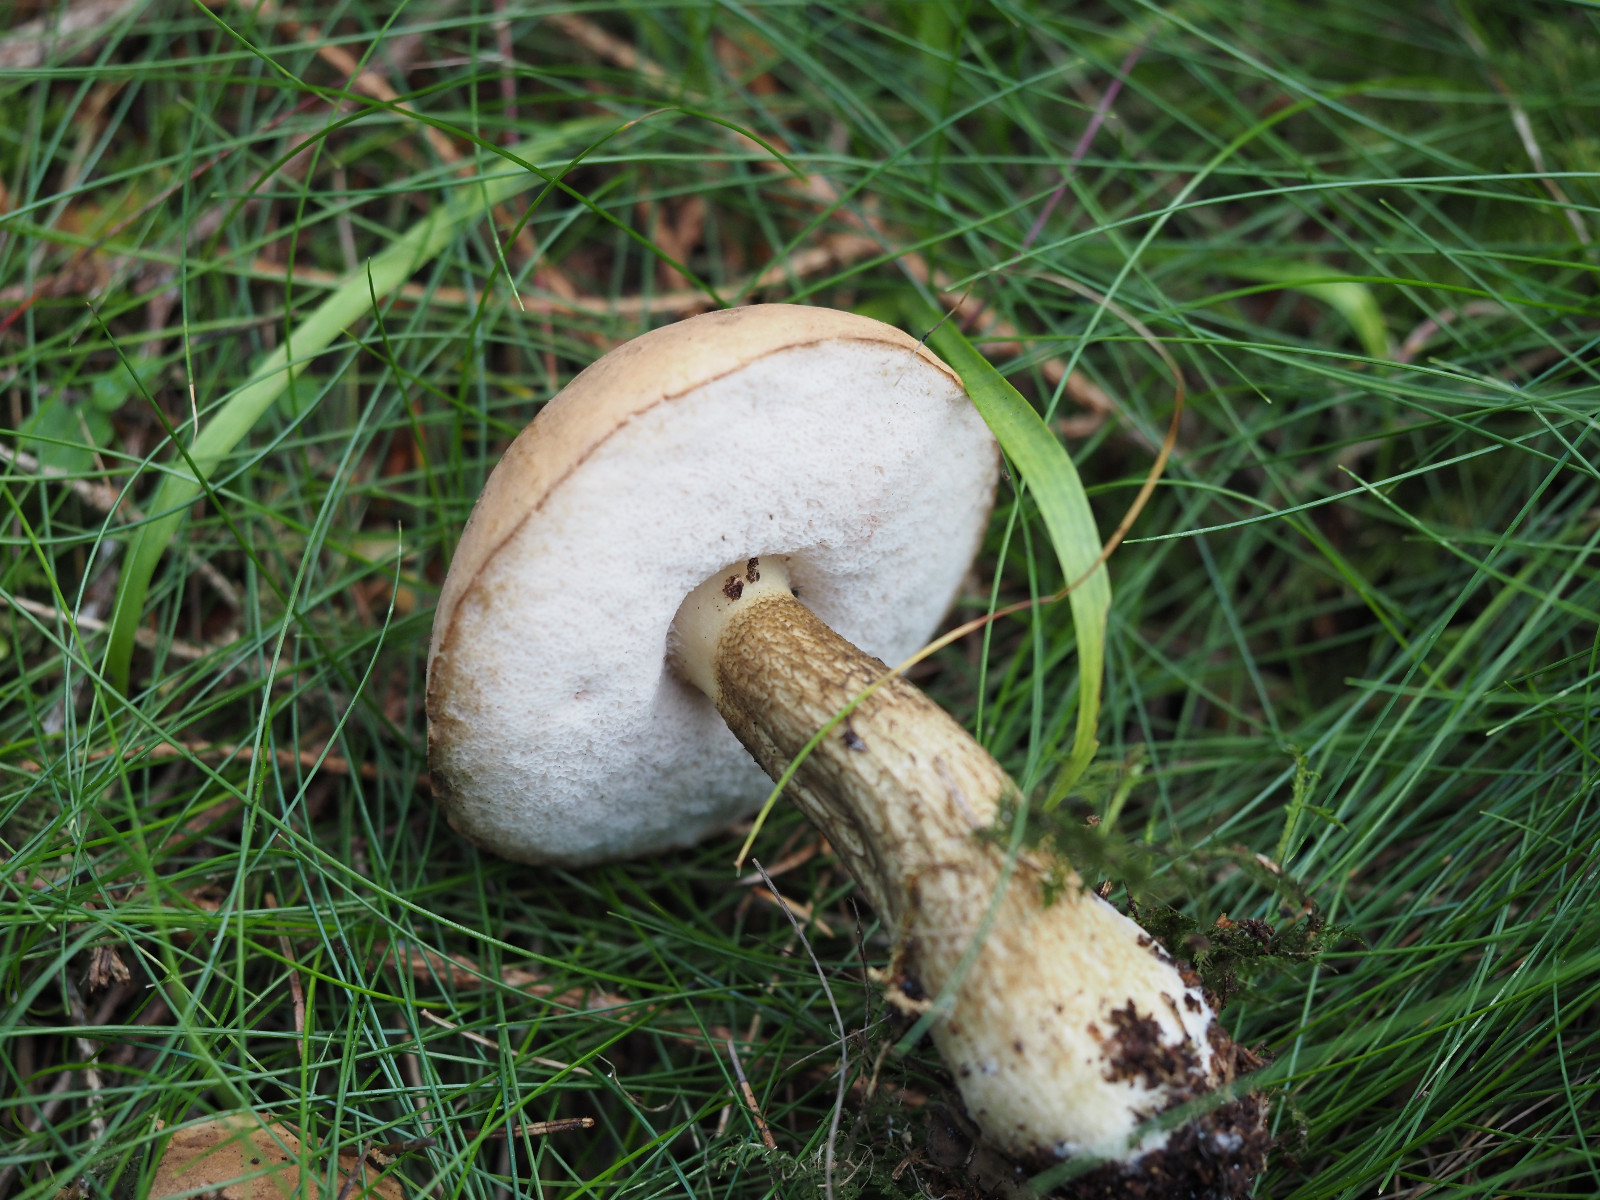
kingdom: Fungi
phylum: Basidiomycota
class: Agaricomycetes
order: Boletales
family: Boletaceae
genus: Tylopilus
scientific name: Tylopilus felleus
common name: galderørhat
